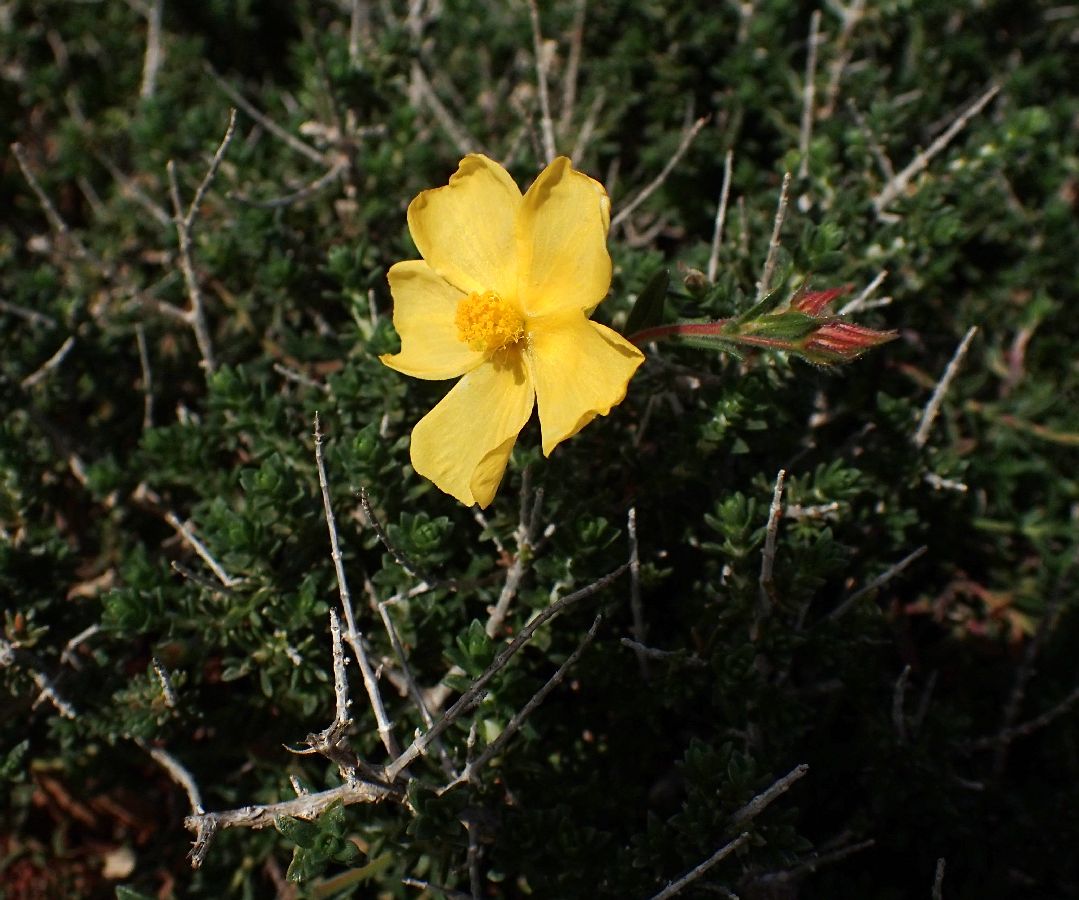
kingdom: Plantae
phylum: Tracheophyta
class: Magnoliopsida
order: Malvales
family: Cistaceae
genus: Fumana
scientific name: Fumana arabica
